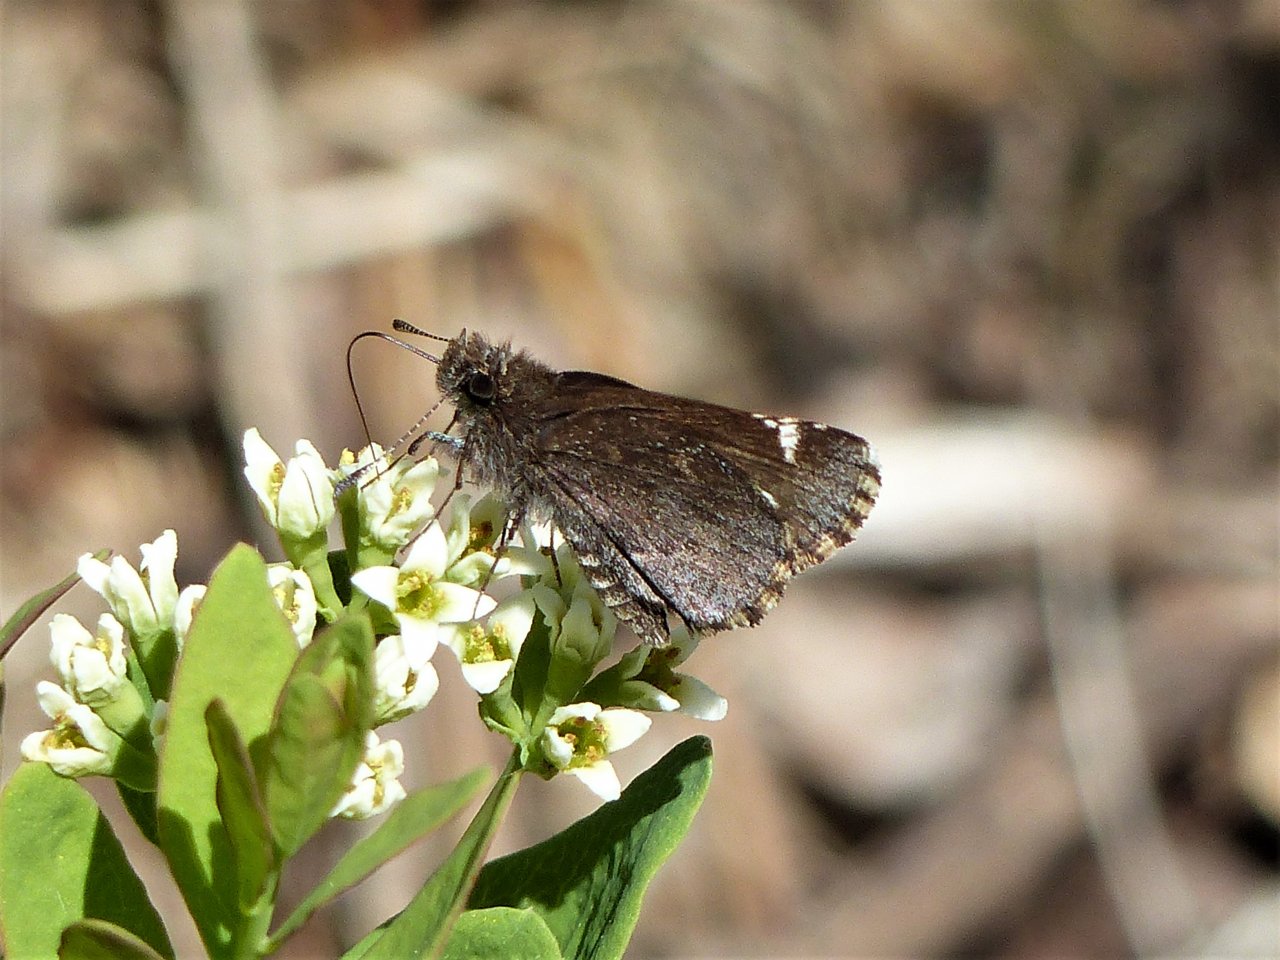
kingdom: Animalia
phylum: Arthropoda
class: Insecta
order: Lepidoptera
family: Hesperiidae
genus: Mastor
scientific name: Mastor vialis
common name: Common Roadside-Skipper
